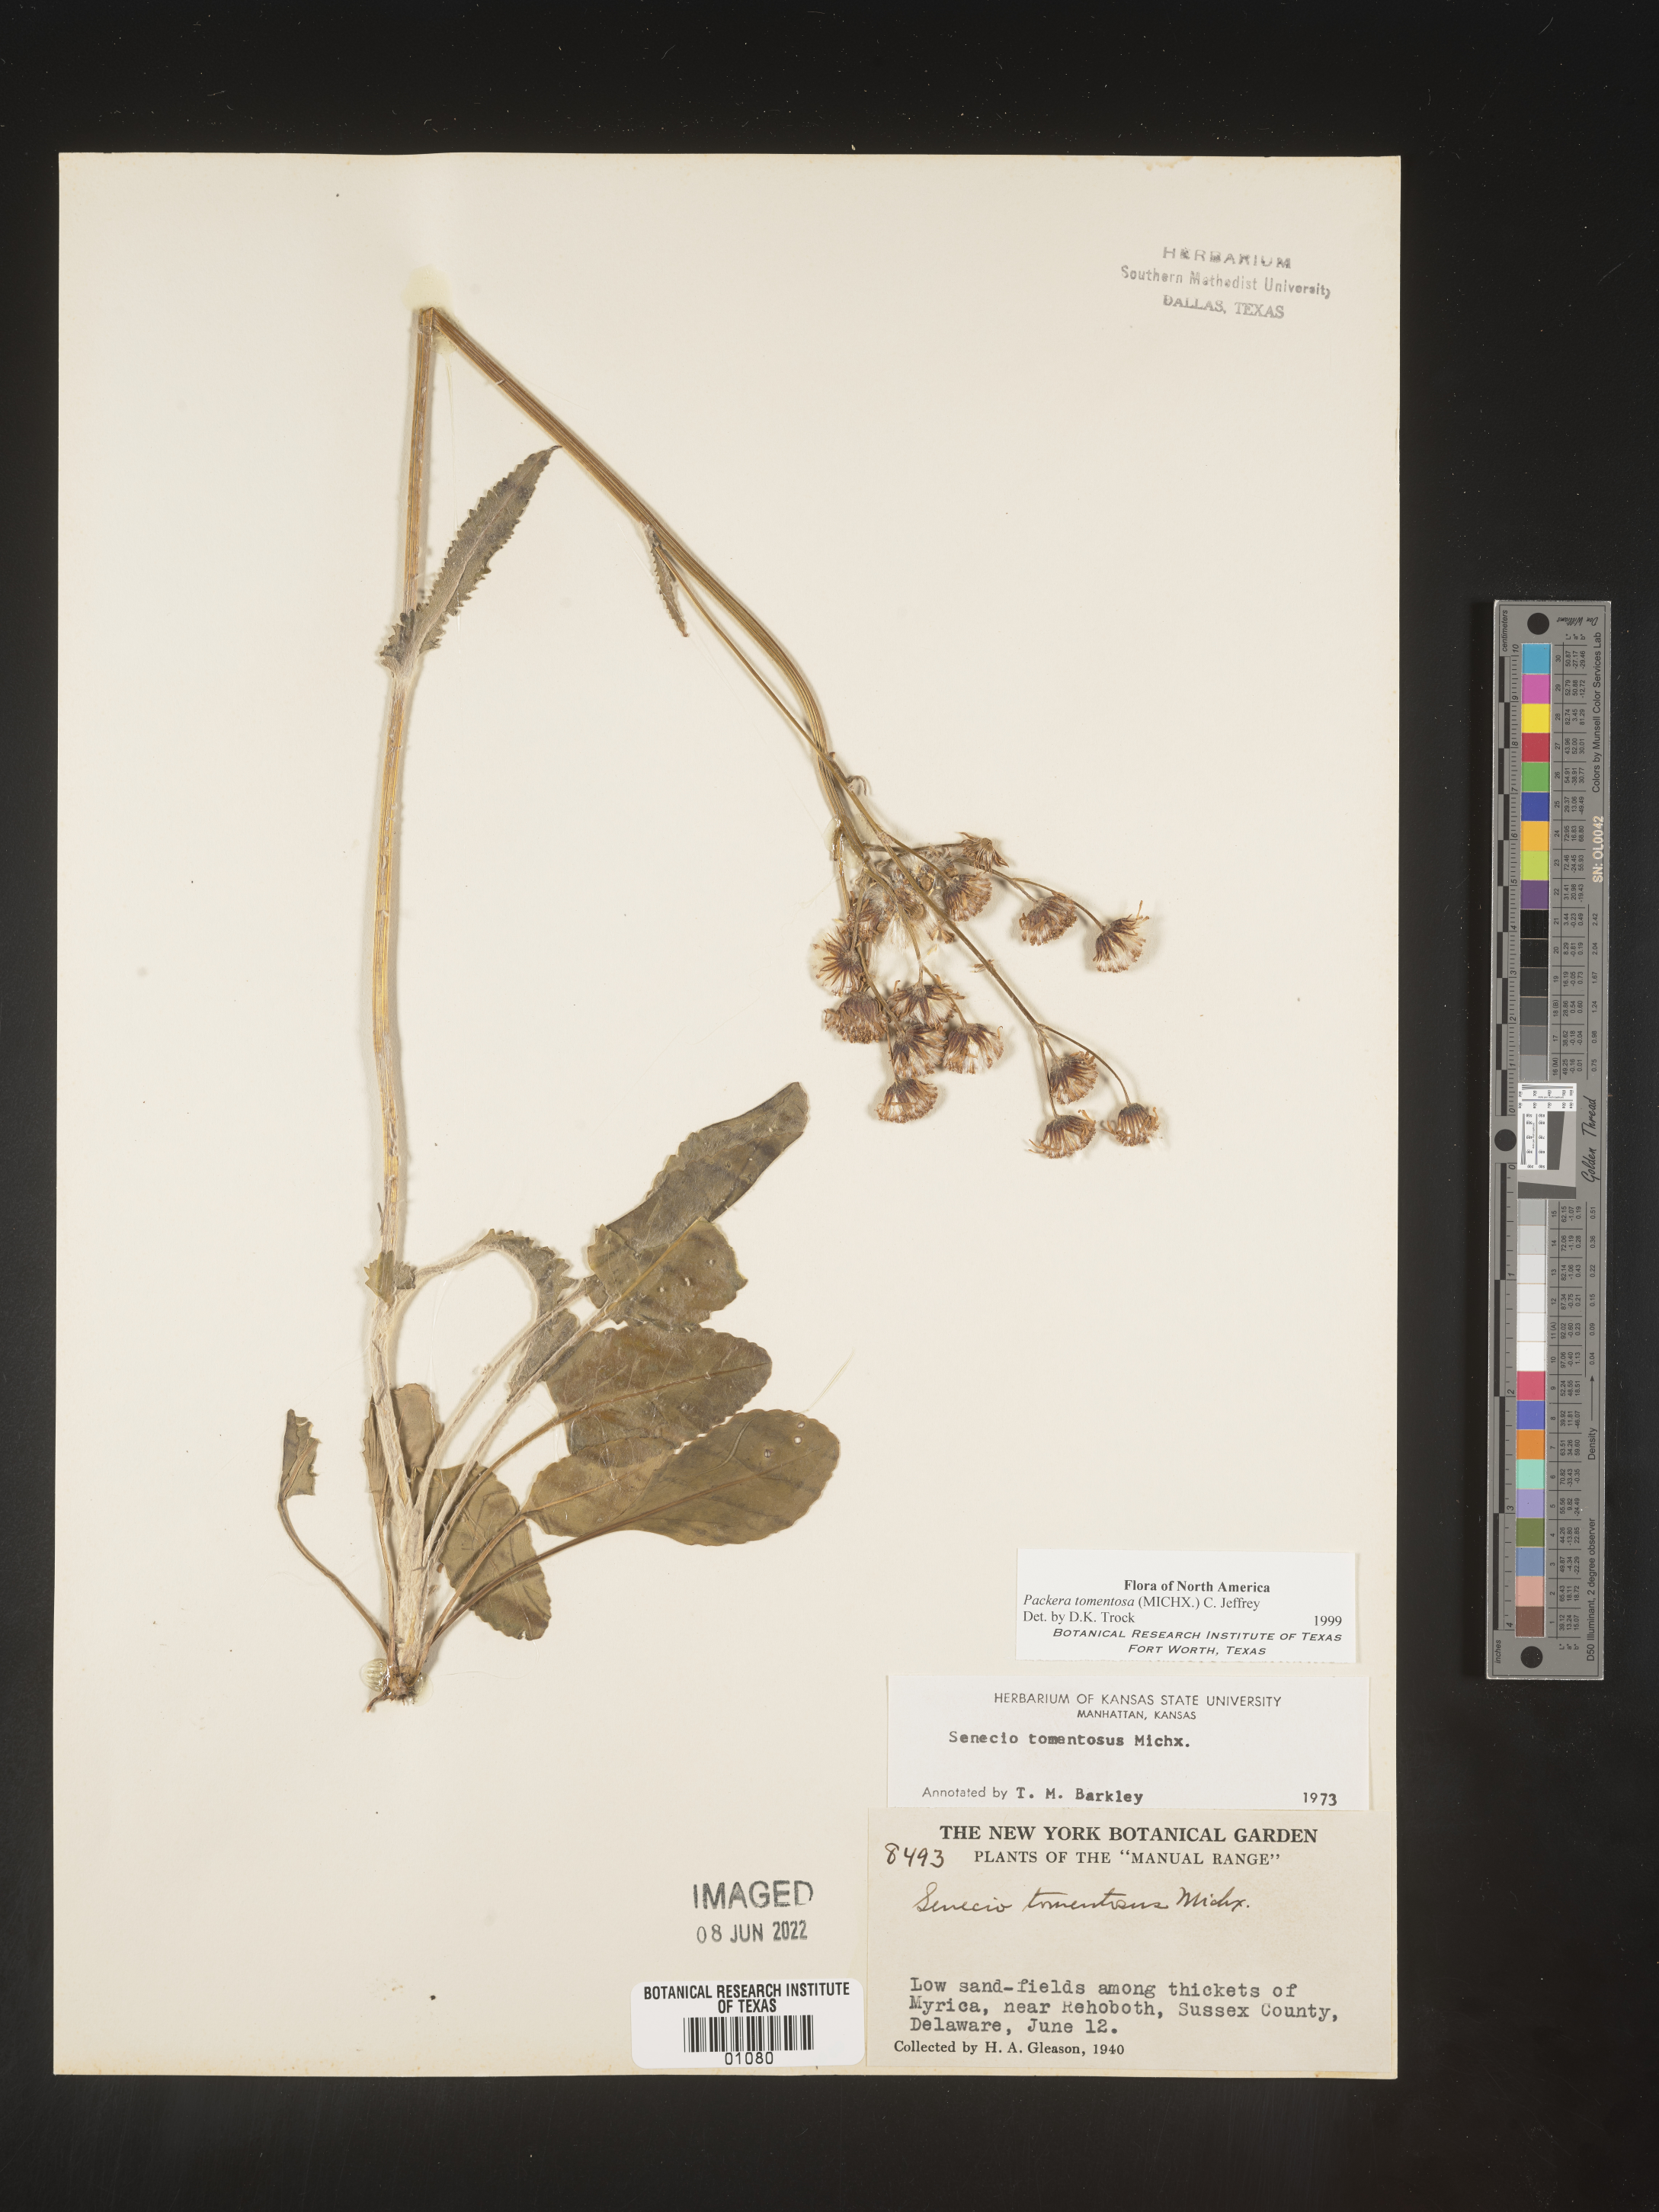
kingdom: Plantae
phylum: Tracheophyta
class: Magnoliopsida
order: Asterales
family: Asteraceae
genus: Packera
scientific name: Packera dubia
